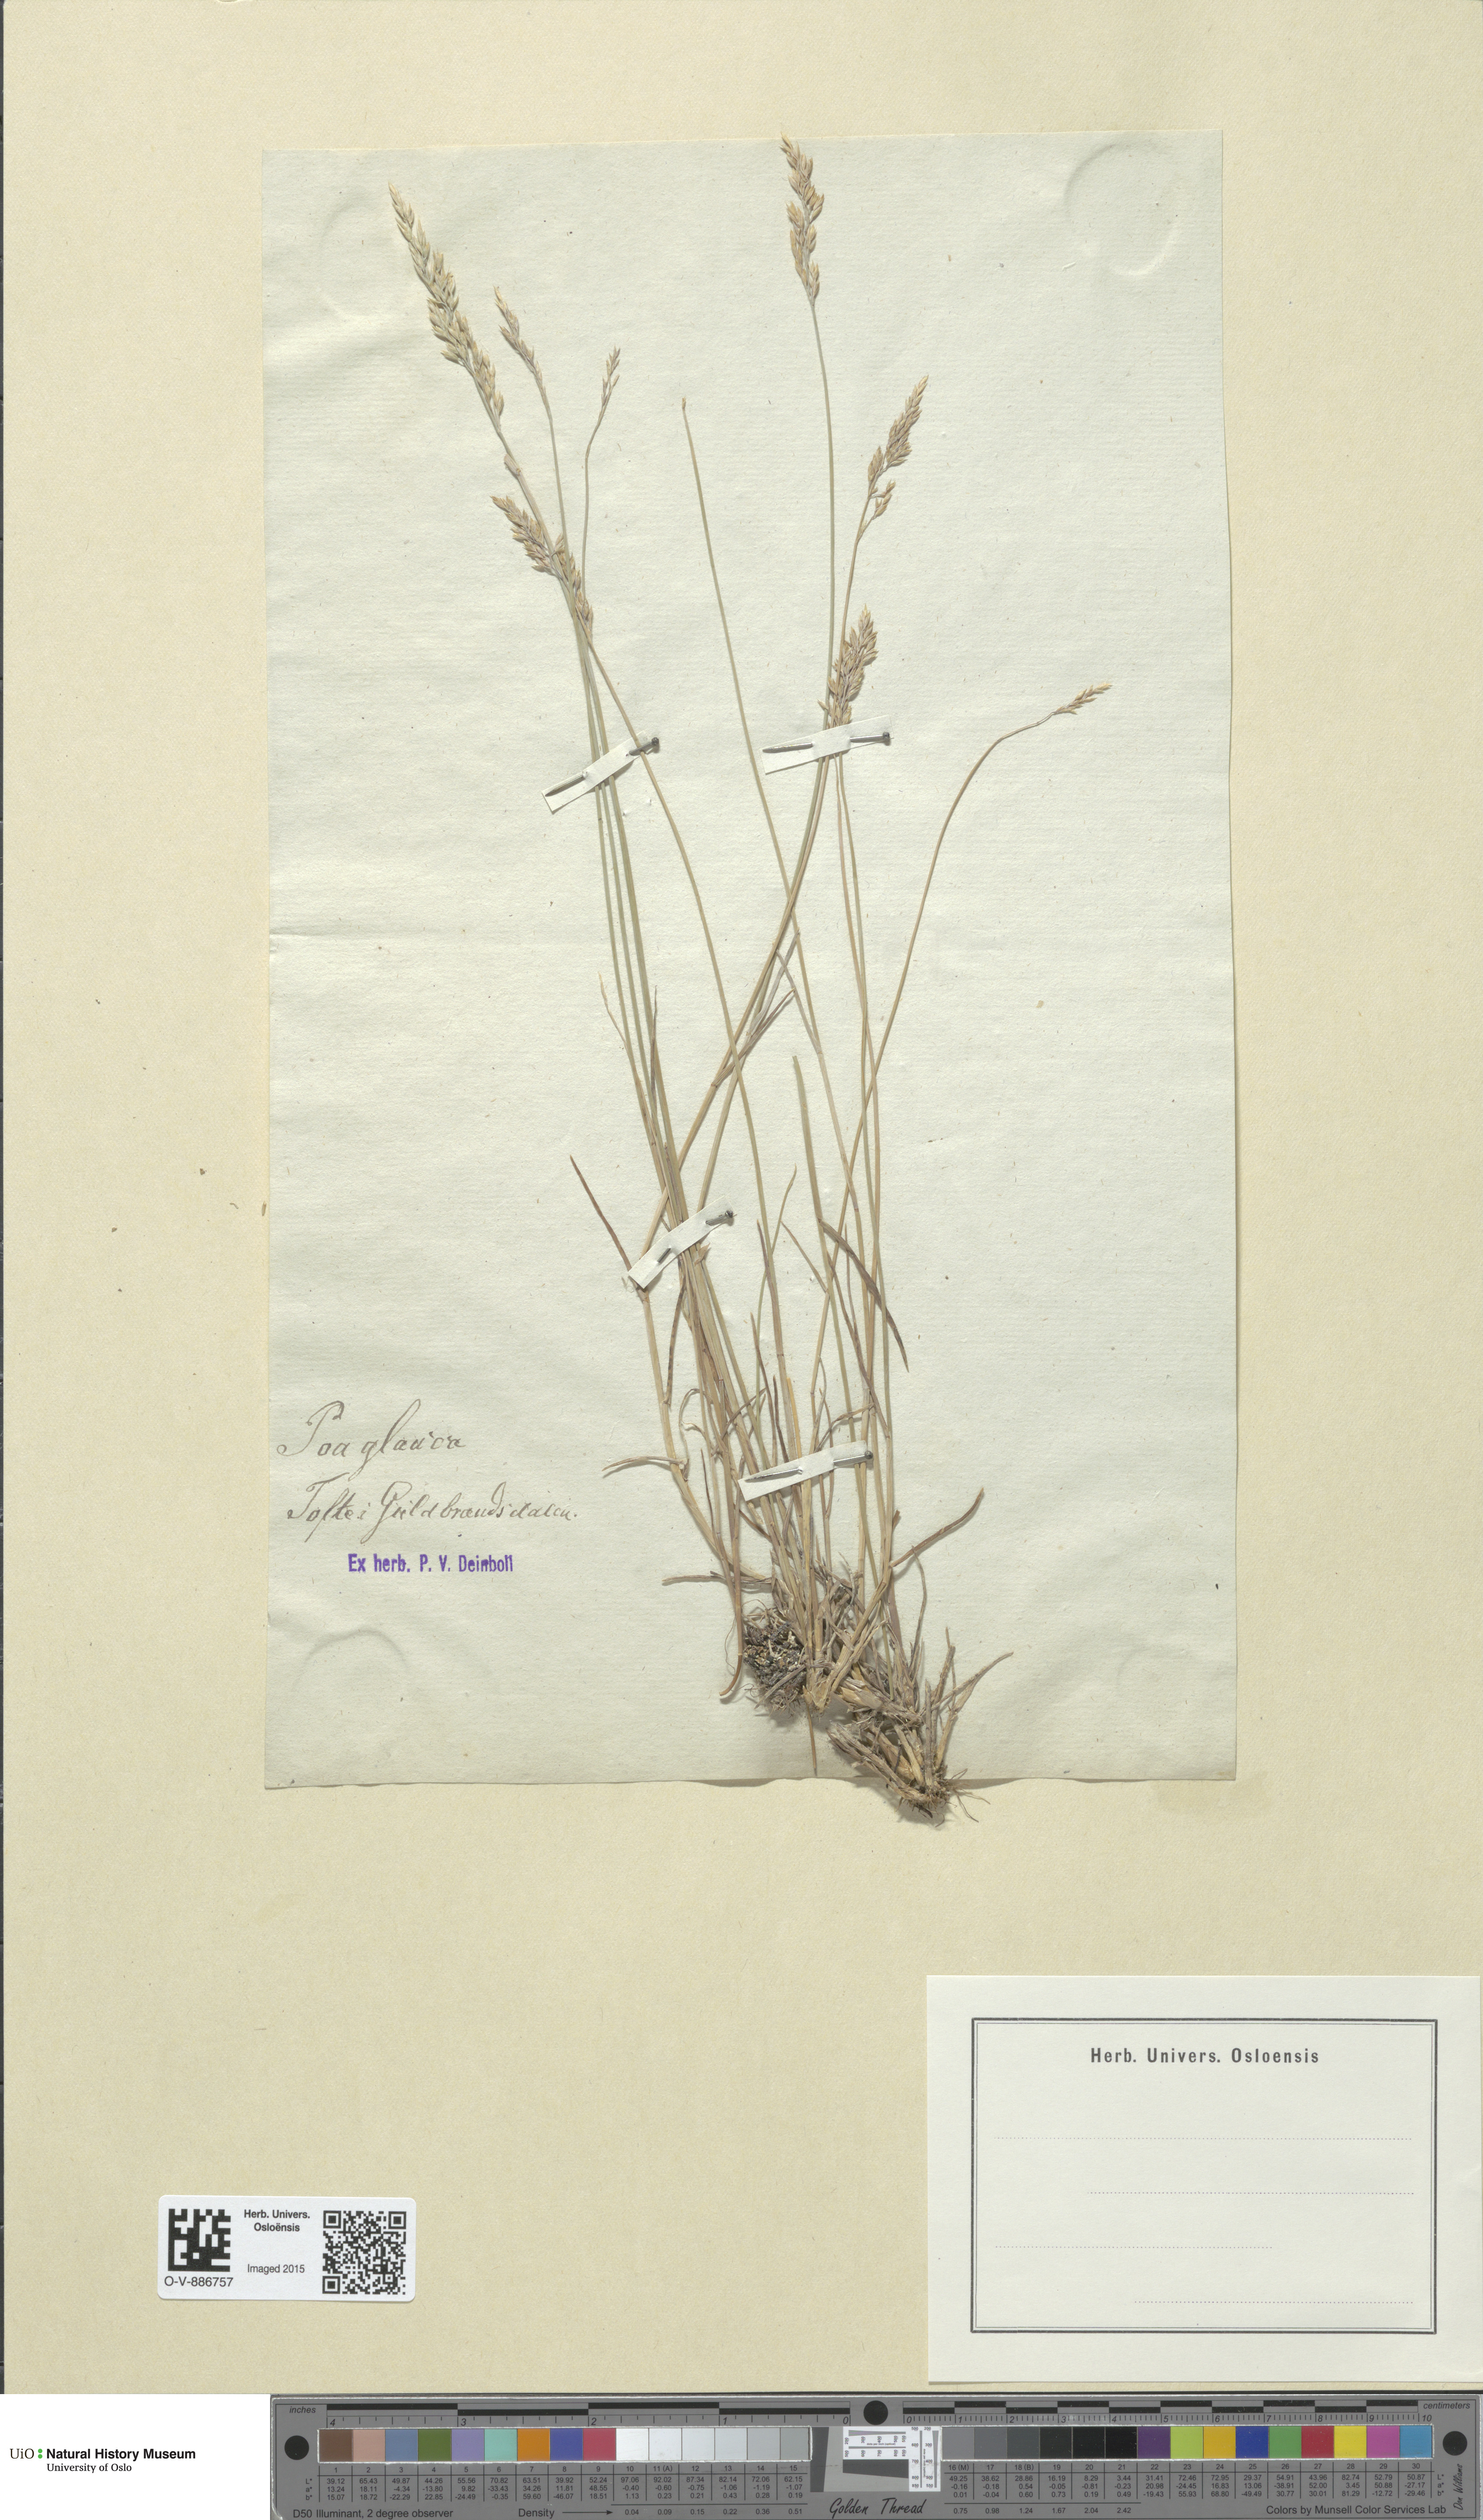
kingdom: Plantae
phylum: Tracheophyta
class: Liliopsida
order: Poales
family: Poaceae
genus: Poa
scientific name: Poa glauca
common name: Glaucous bluegrass
